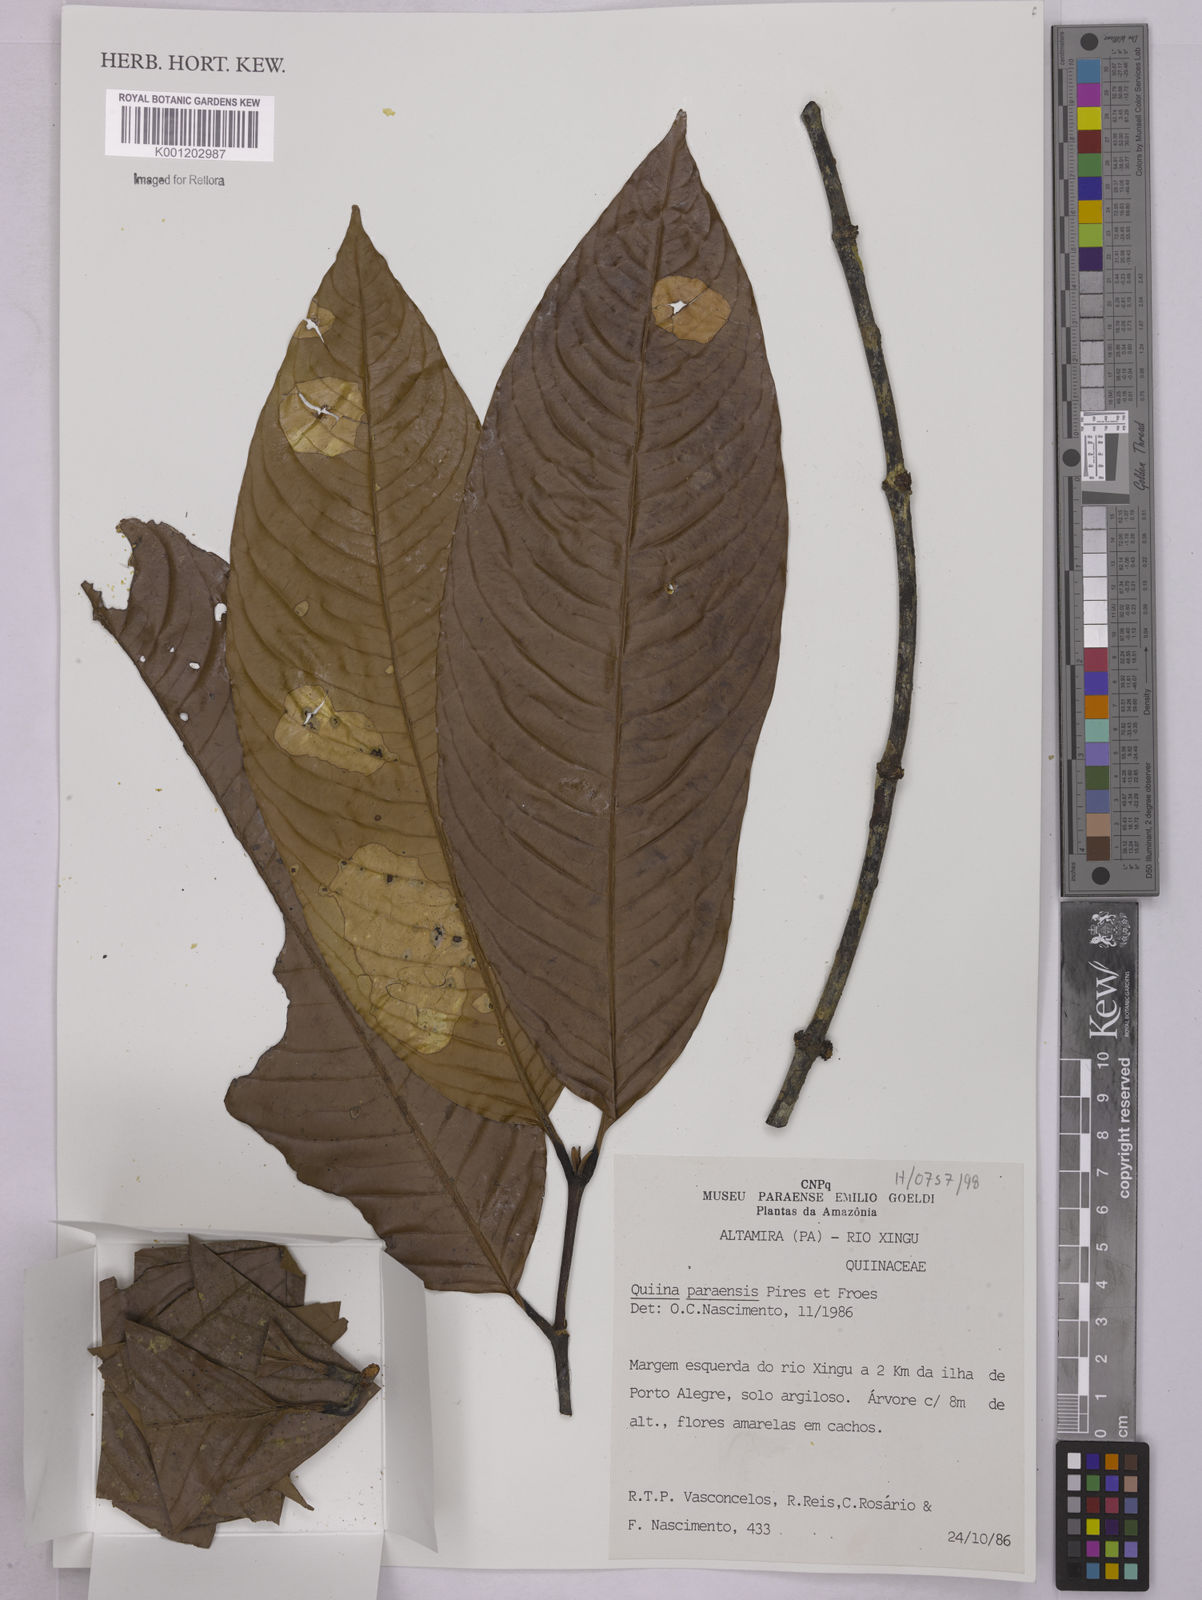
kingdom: Plantae
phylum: Tracheophyta
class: Magnoliopsida
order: Malpighiales
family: Quiinaceae
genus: Quiina
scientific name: Quiina paraensis
